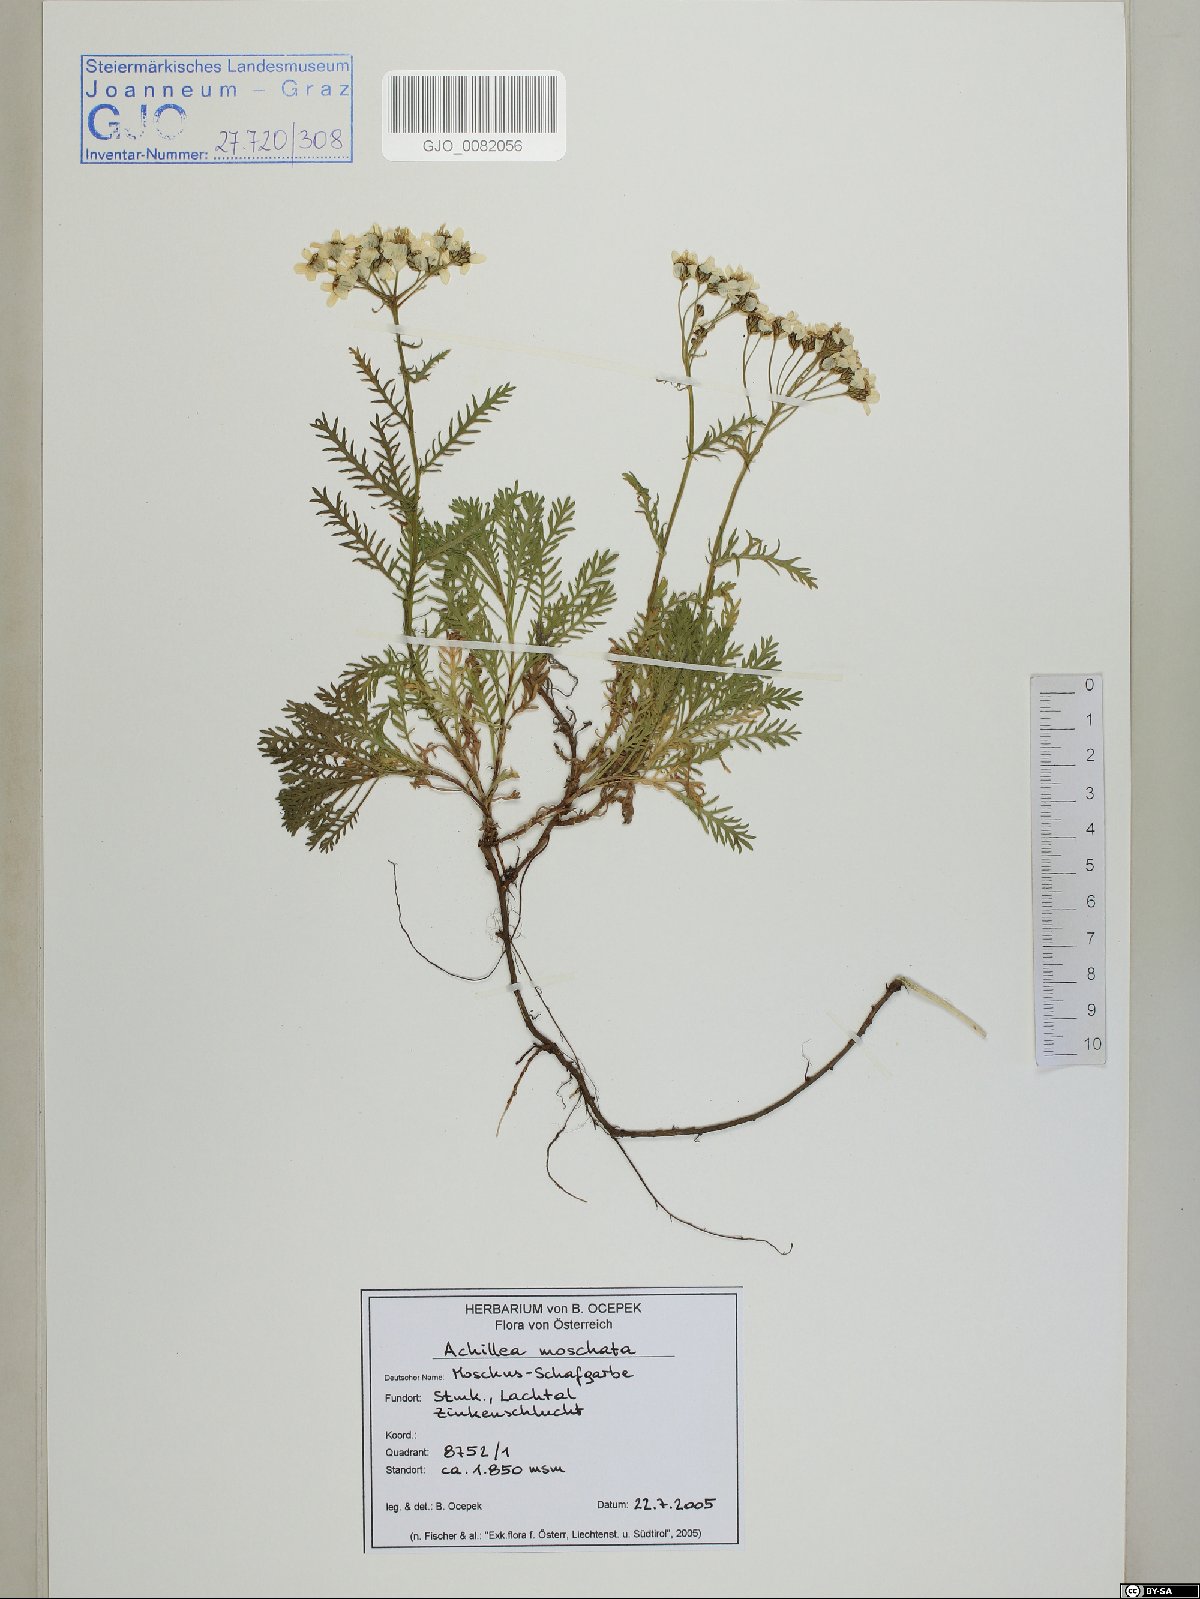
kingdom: Plantae
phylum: Tracheophyta
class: Magnoliopsida
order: Asterales
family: Asteraceae
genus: Achillea
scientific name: Achillea erba-rotta
